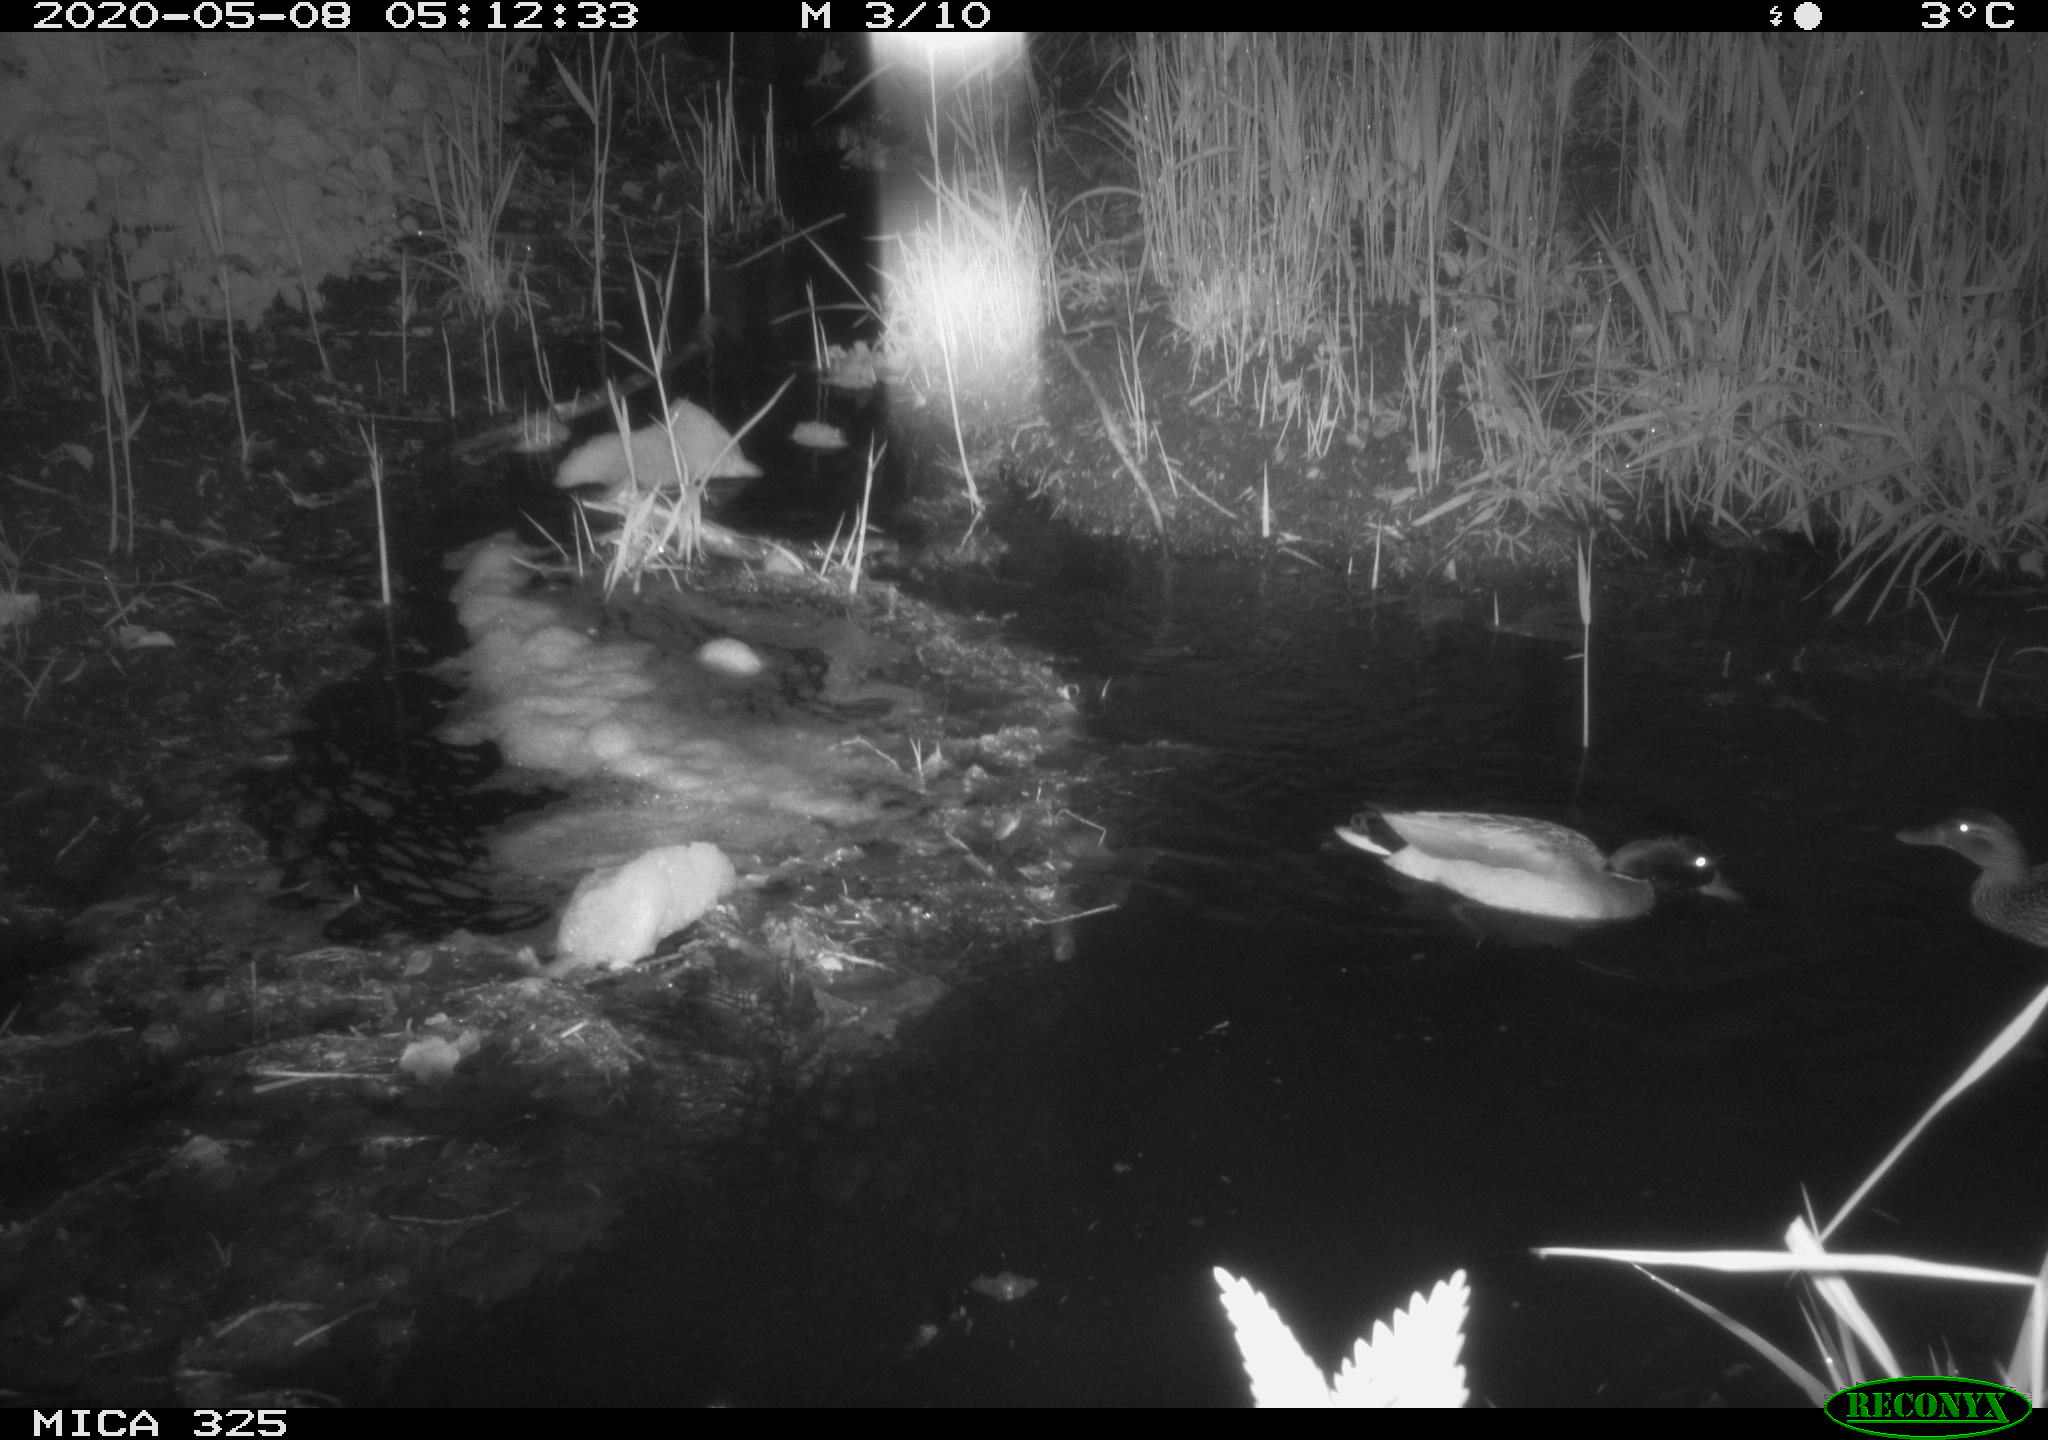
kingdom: Animalia
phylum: Chordata
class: Aves
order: Anseriformes
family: Anatidae
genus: Anas
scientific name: Anas platyrhynchos
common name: Mallard
